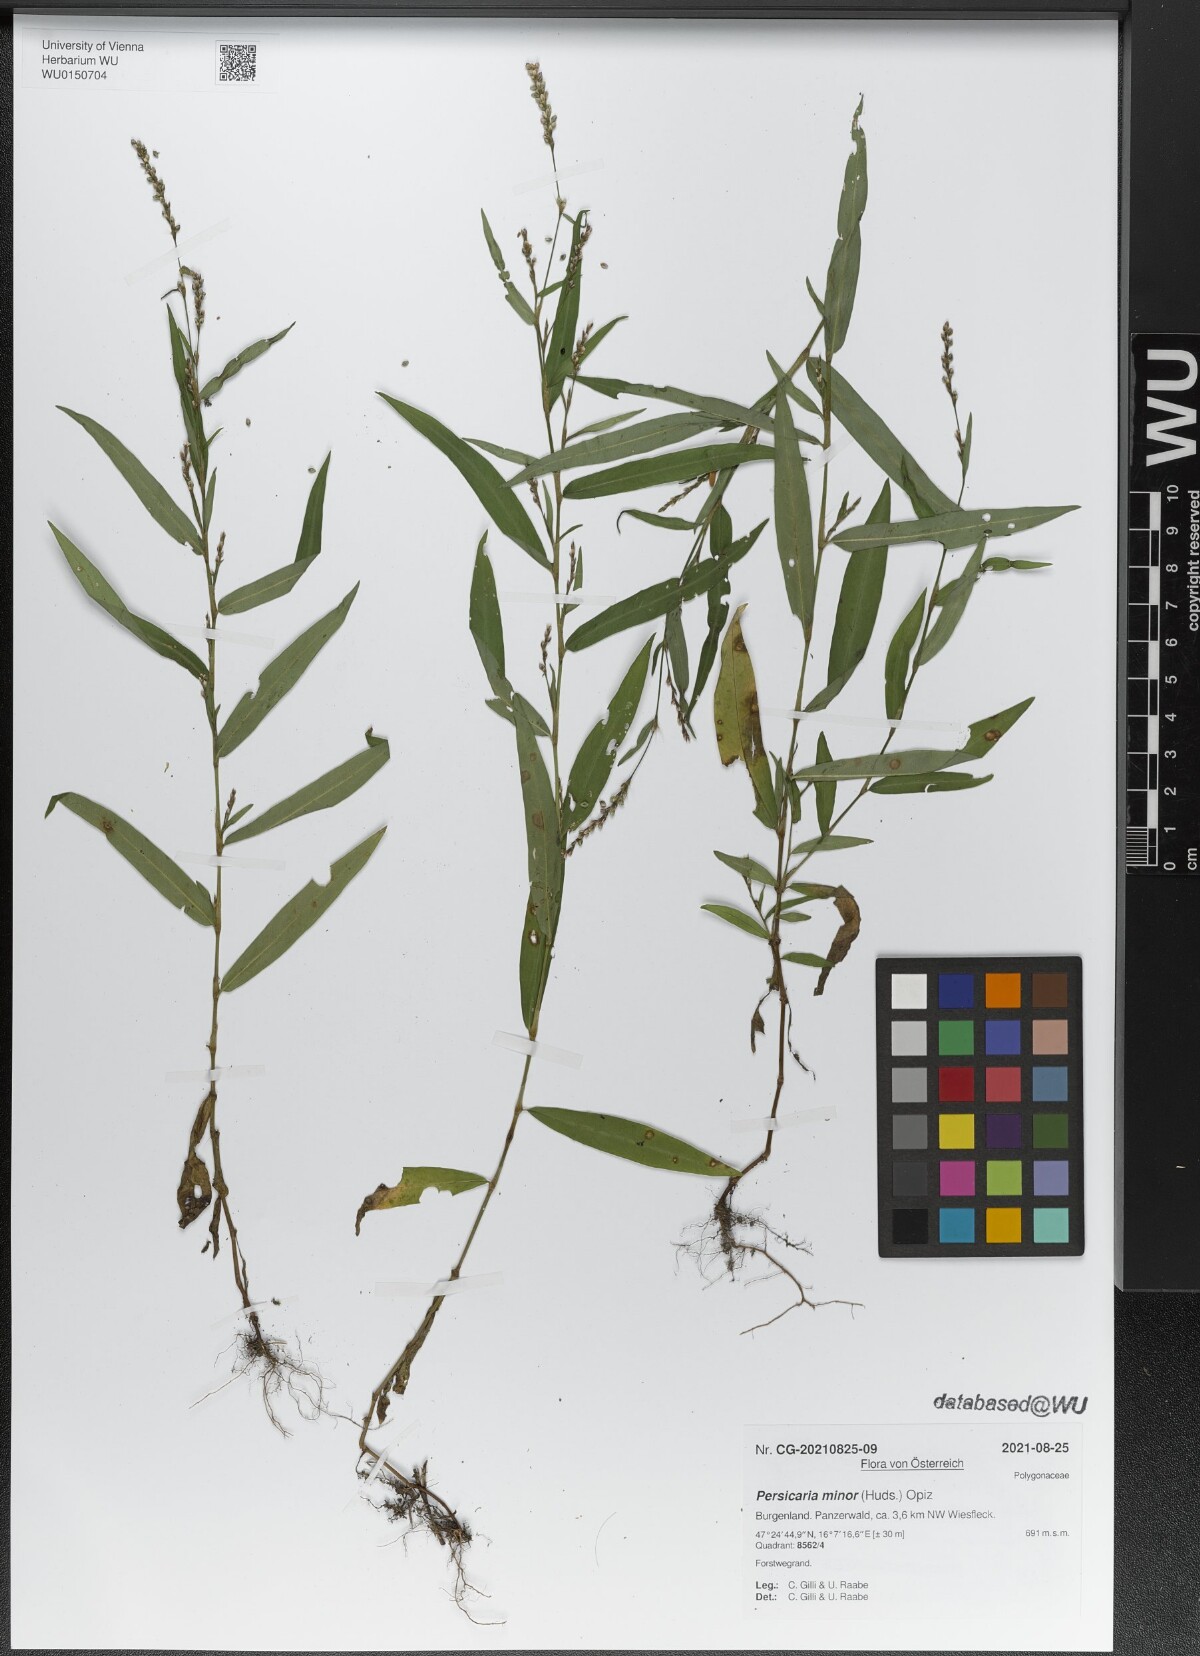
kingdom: Plantae
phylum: Tracheophyta
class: Magnoliopsida
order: Caryophyllales
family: Polygonaceae
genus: Persicaria
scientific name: Persicaria minor
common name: Small water-pepper
